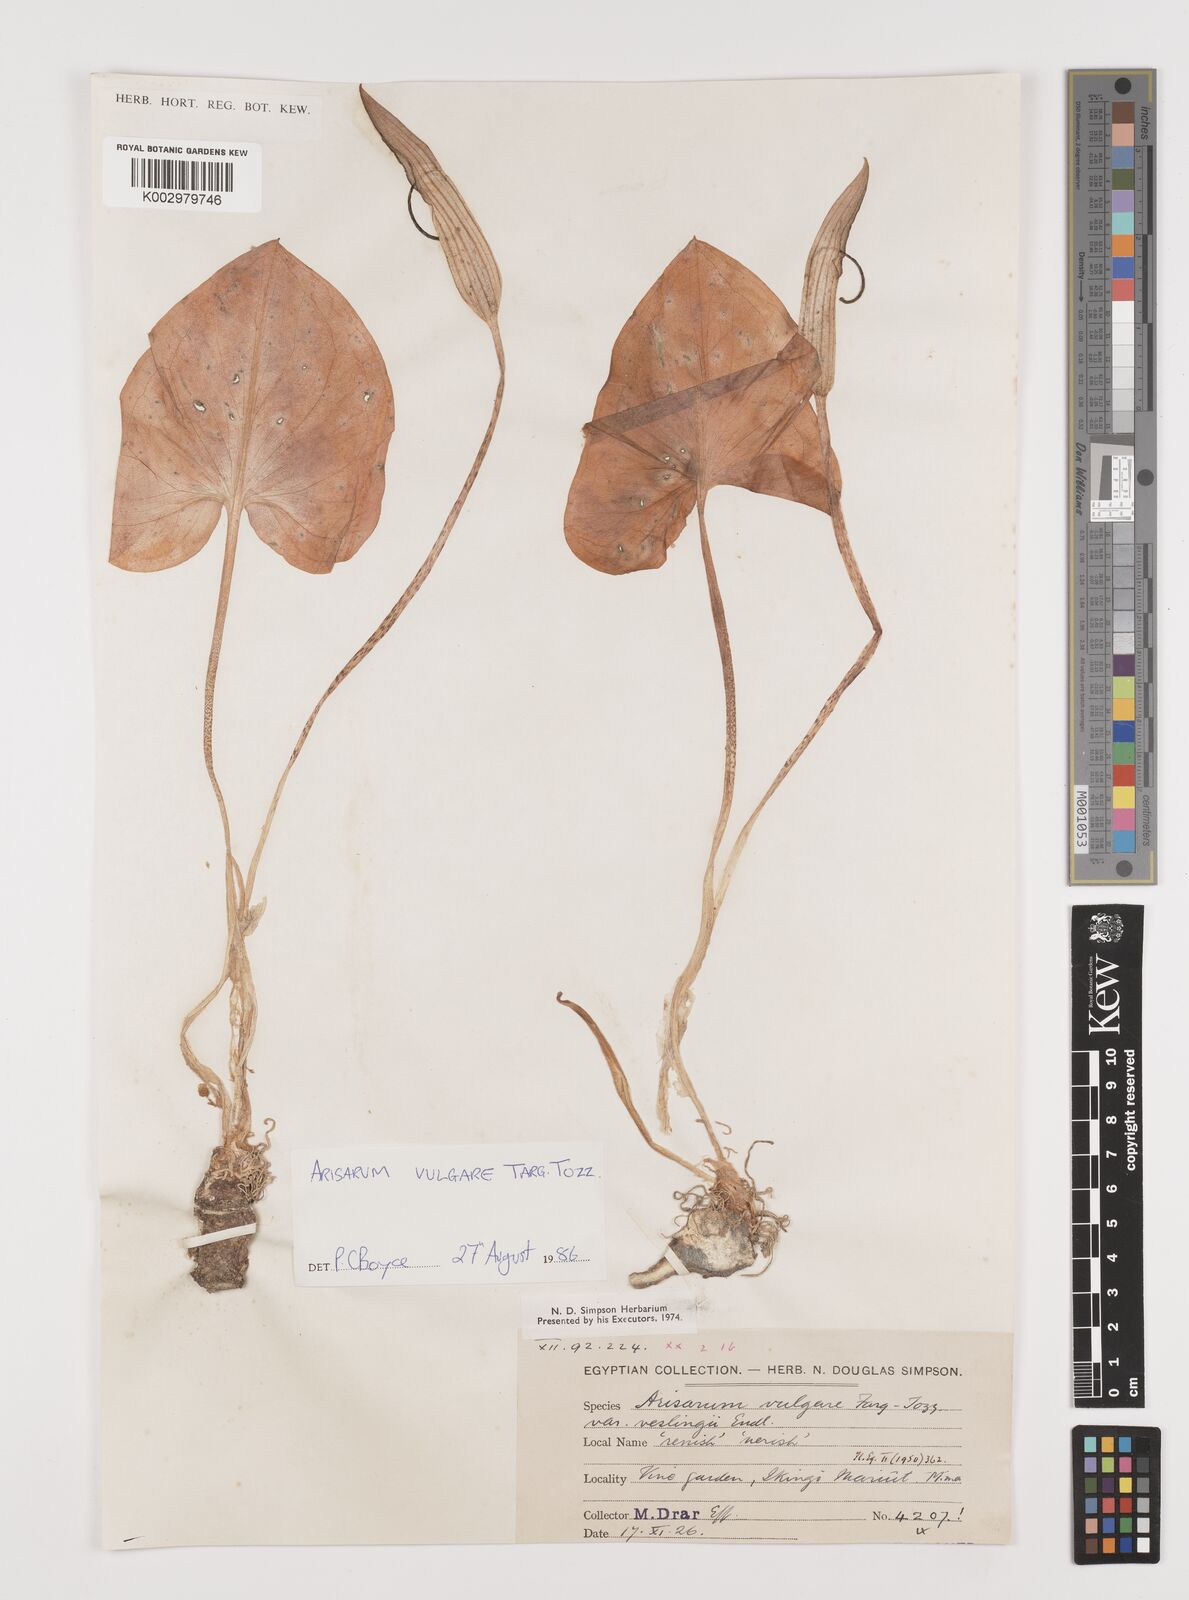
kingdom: Plantae
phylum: Tracheophyta
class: Liliopsida
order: Alismatales
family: Araceae
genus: Arisarum
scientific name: Arisarum vulgare
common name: Common arisarum
